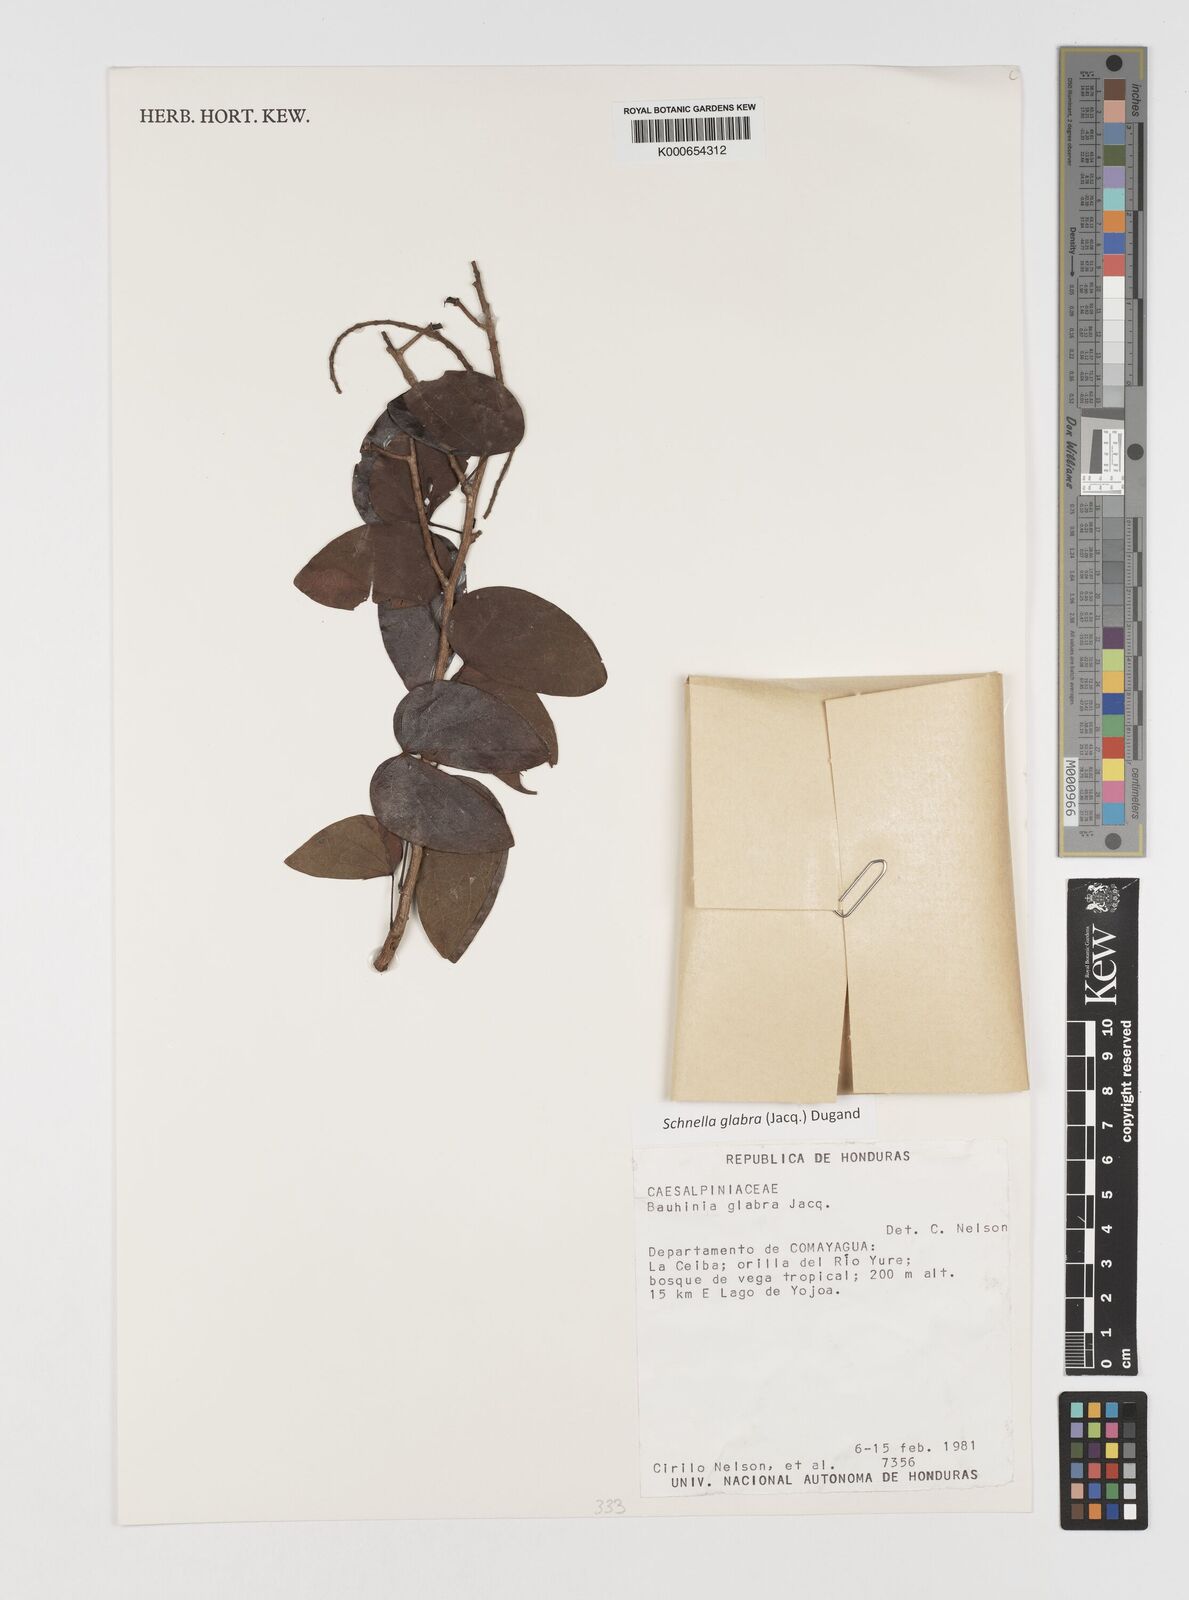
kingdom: Plantae
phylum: Tracheophyta
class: Magnoliopsida
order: Fabales
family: Fabaceae
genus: Schnella
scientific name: Schnella glabra
